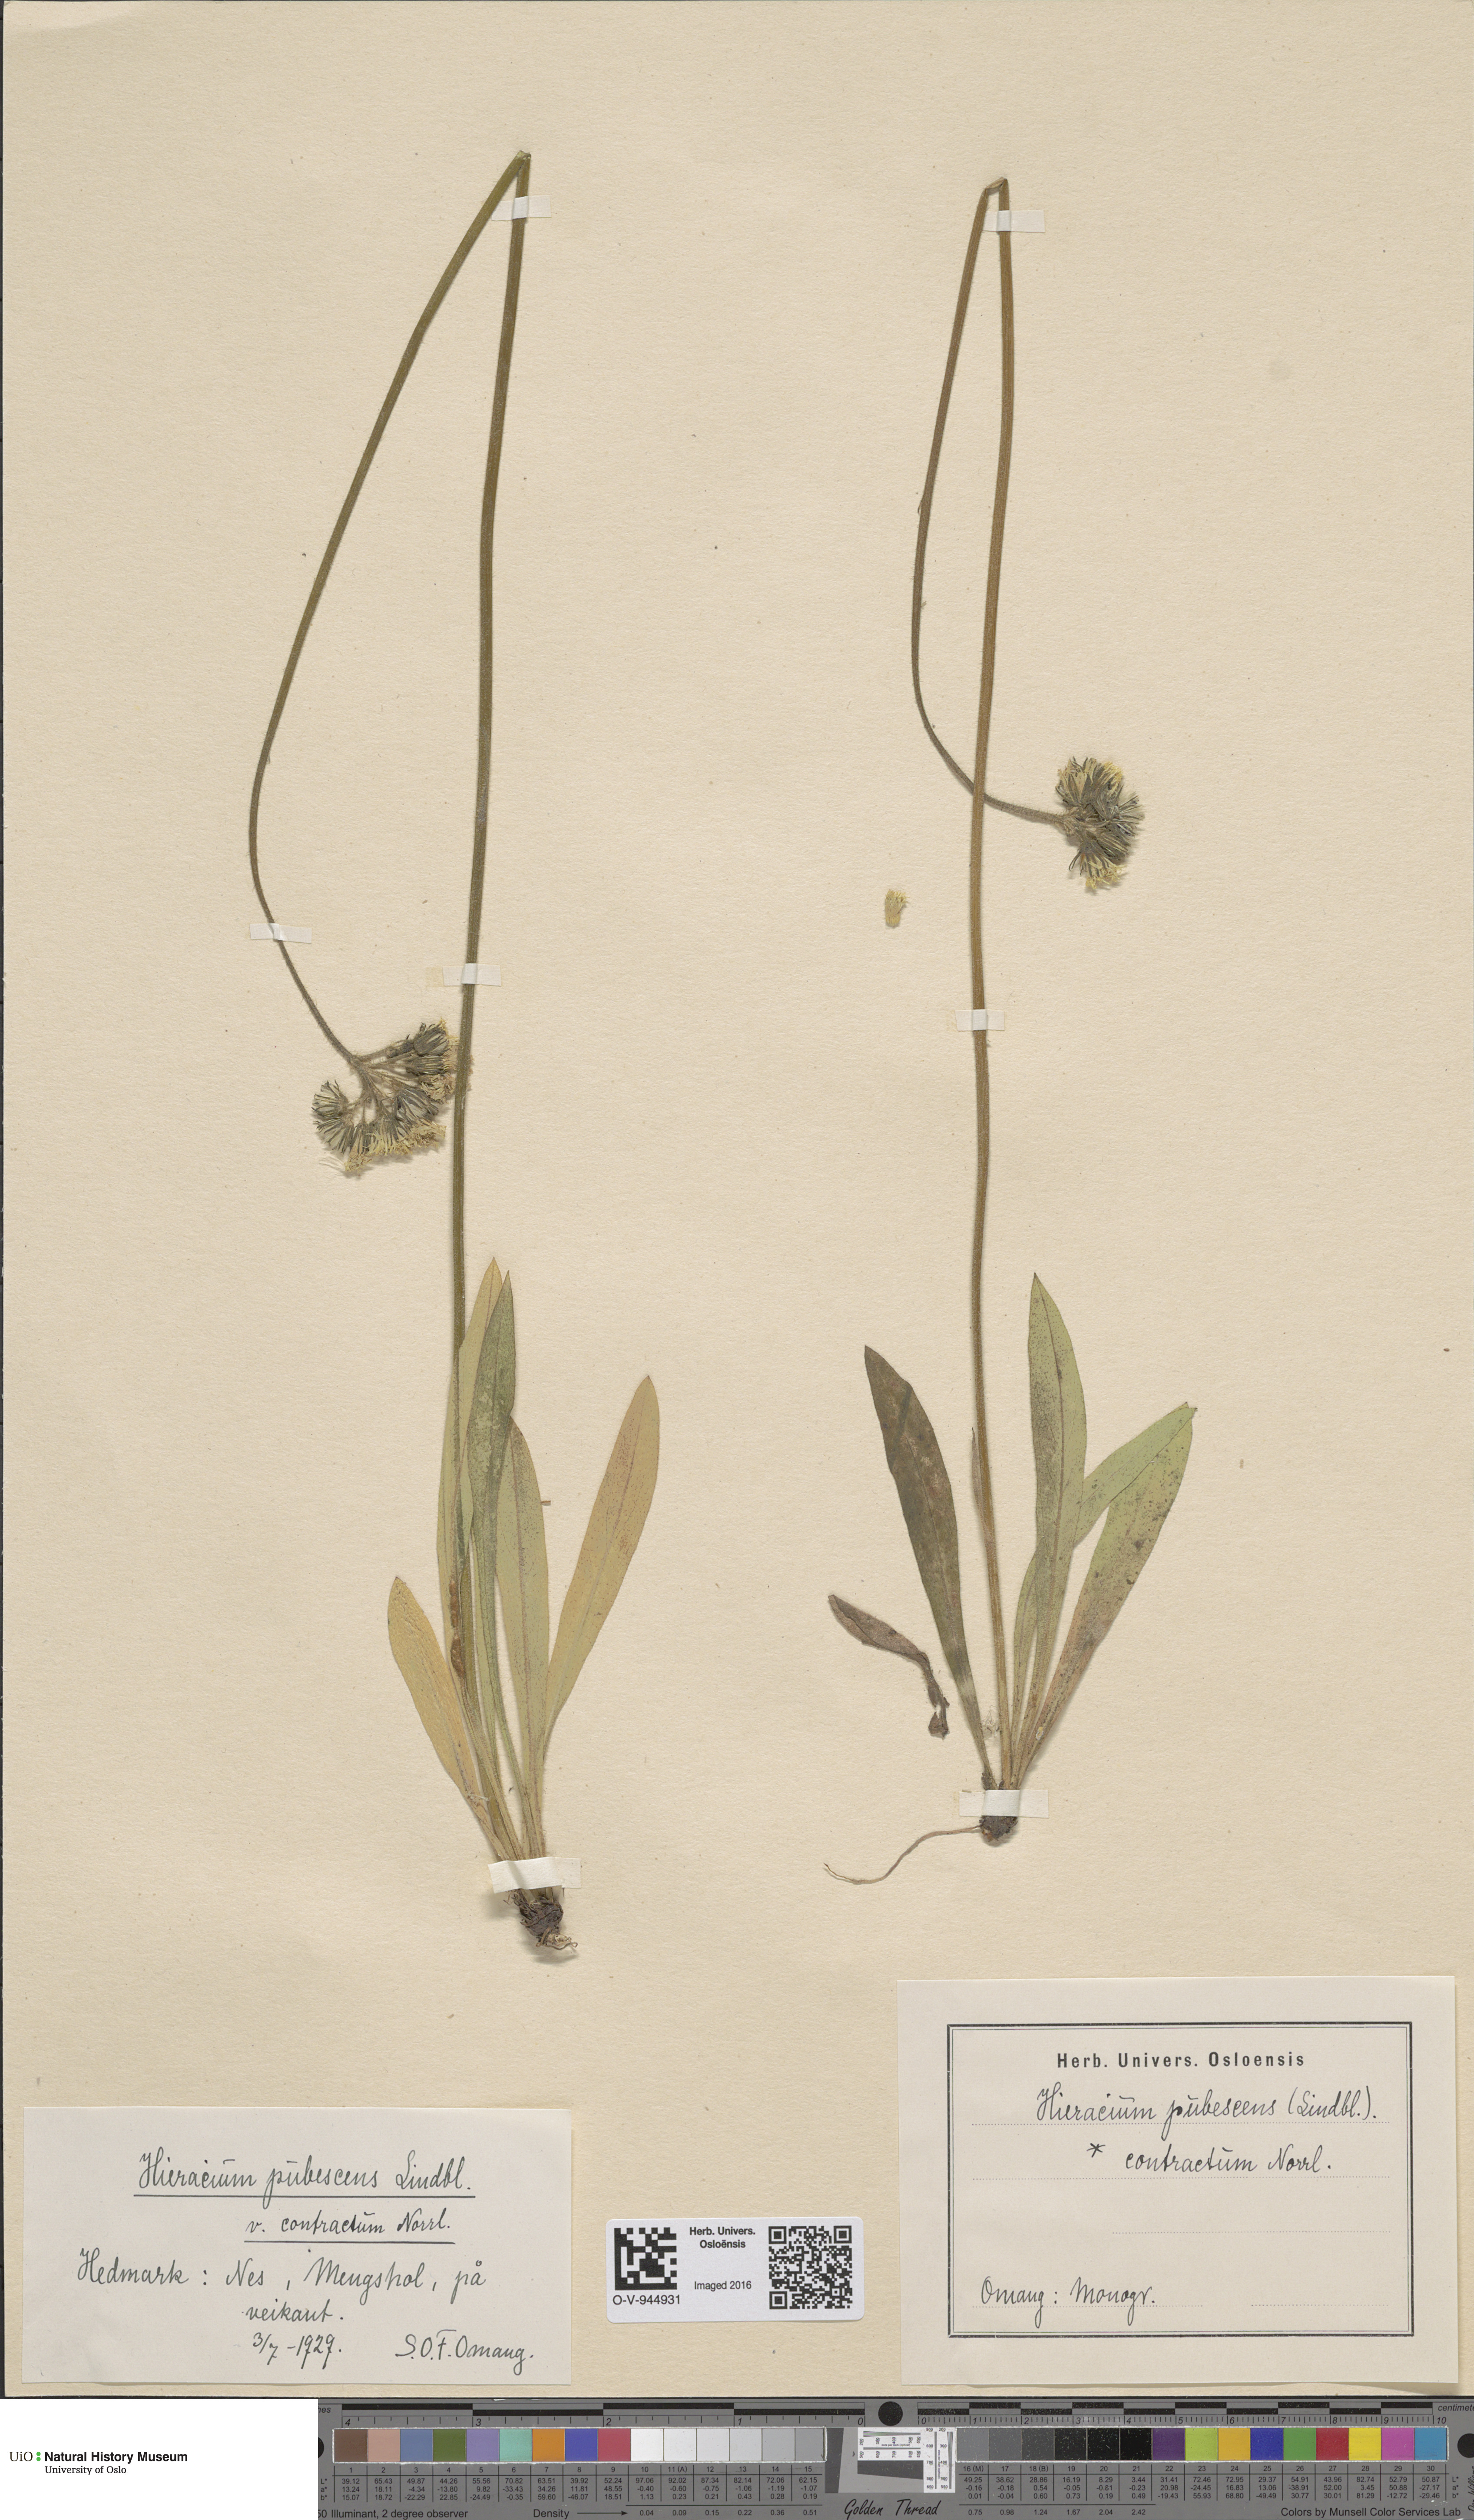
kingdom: Plantae
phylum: Tracheophyta
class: Magnoliopsida
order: Asterales
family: Asteraceae
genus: Pilosella
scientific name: Pilosella cymosa
